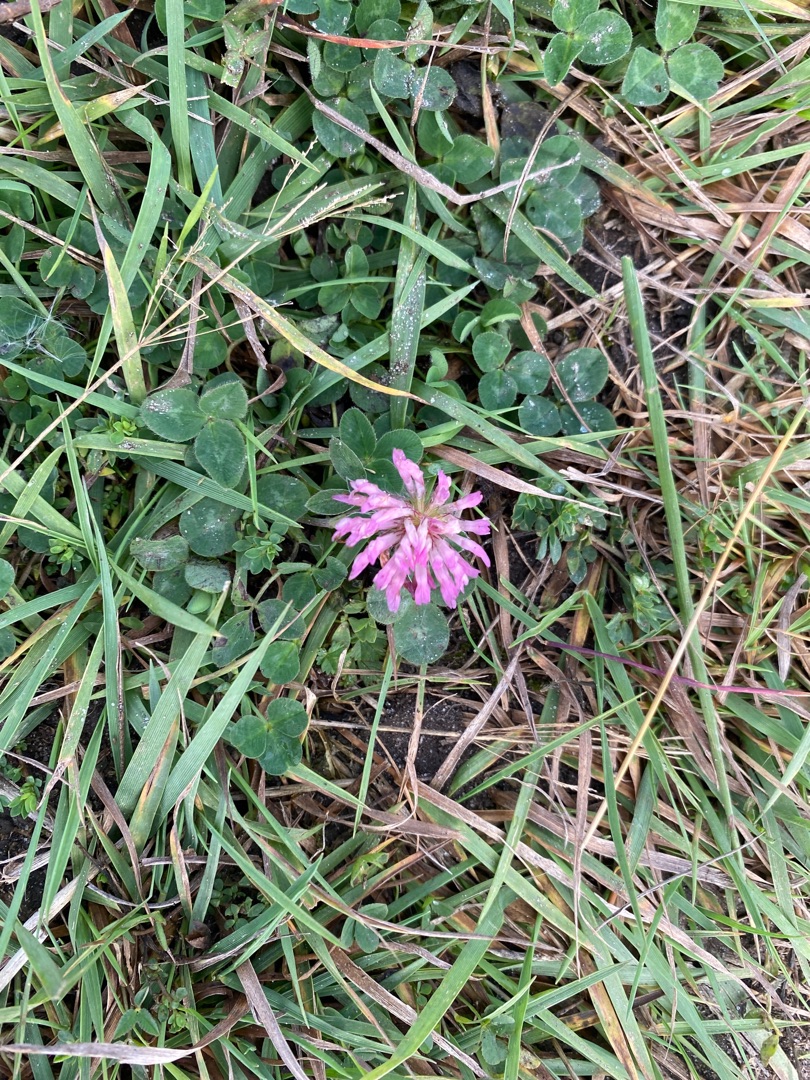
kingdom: Plantae
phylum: Tracheophyta
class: Magnoliopsida
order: Fabales
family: Fabaceae
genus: Trifolium
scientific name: Trifolium pratense
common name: Rød-kløver
